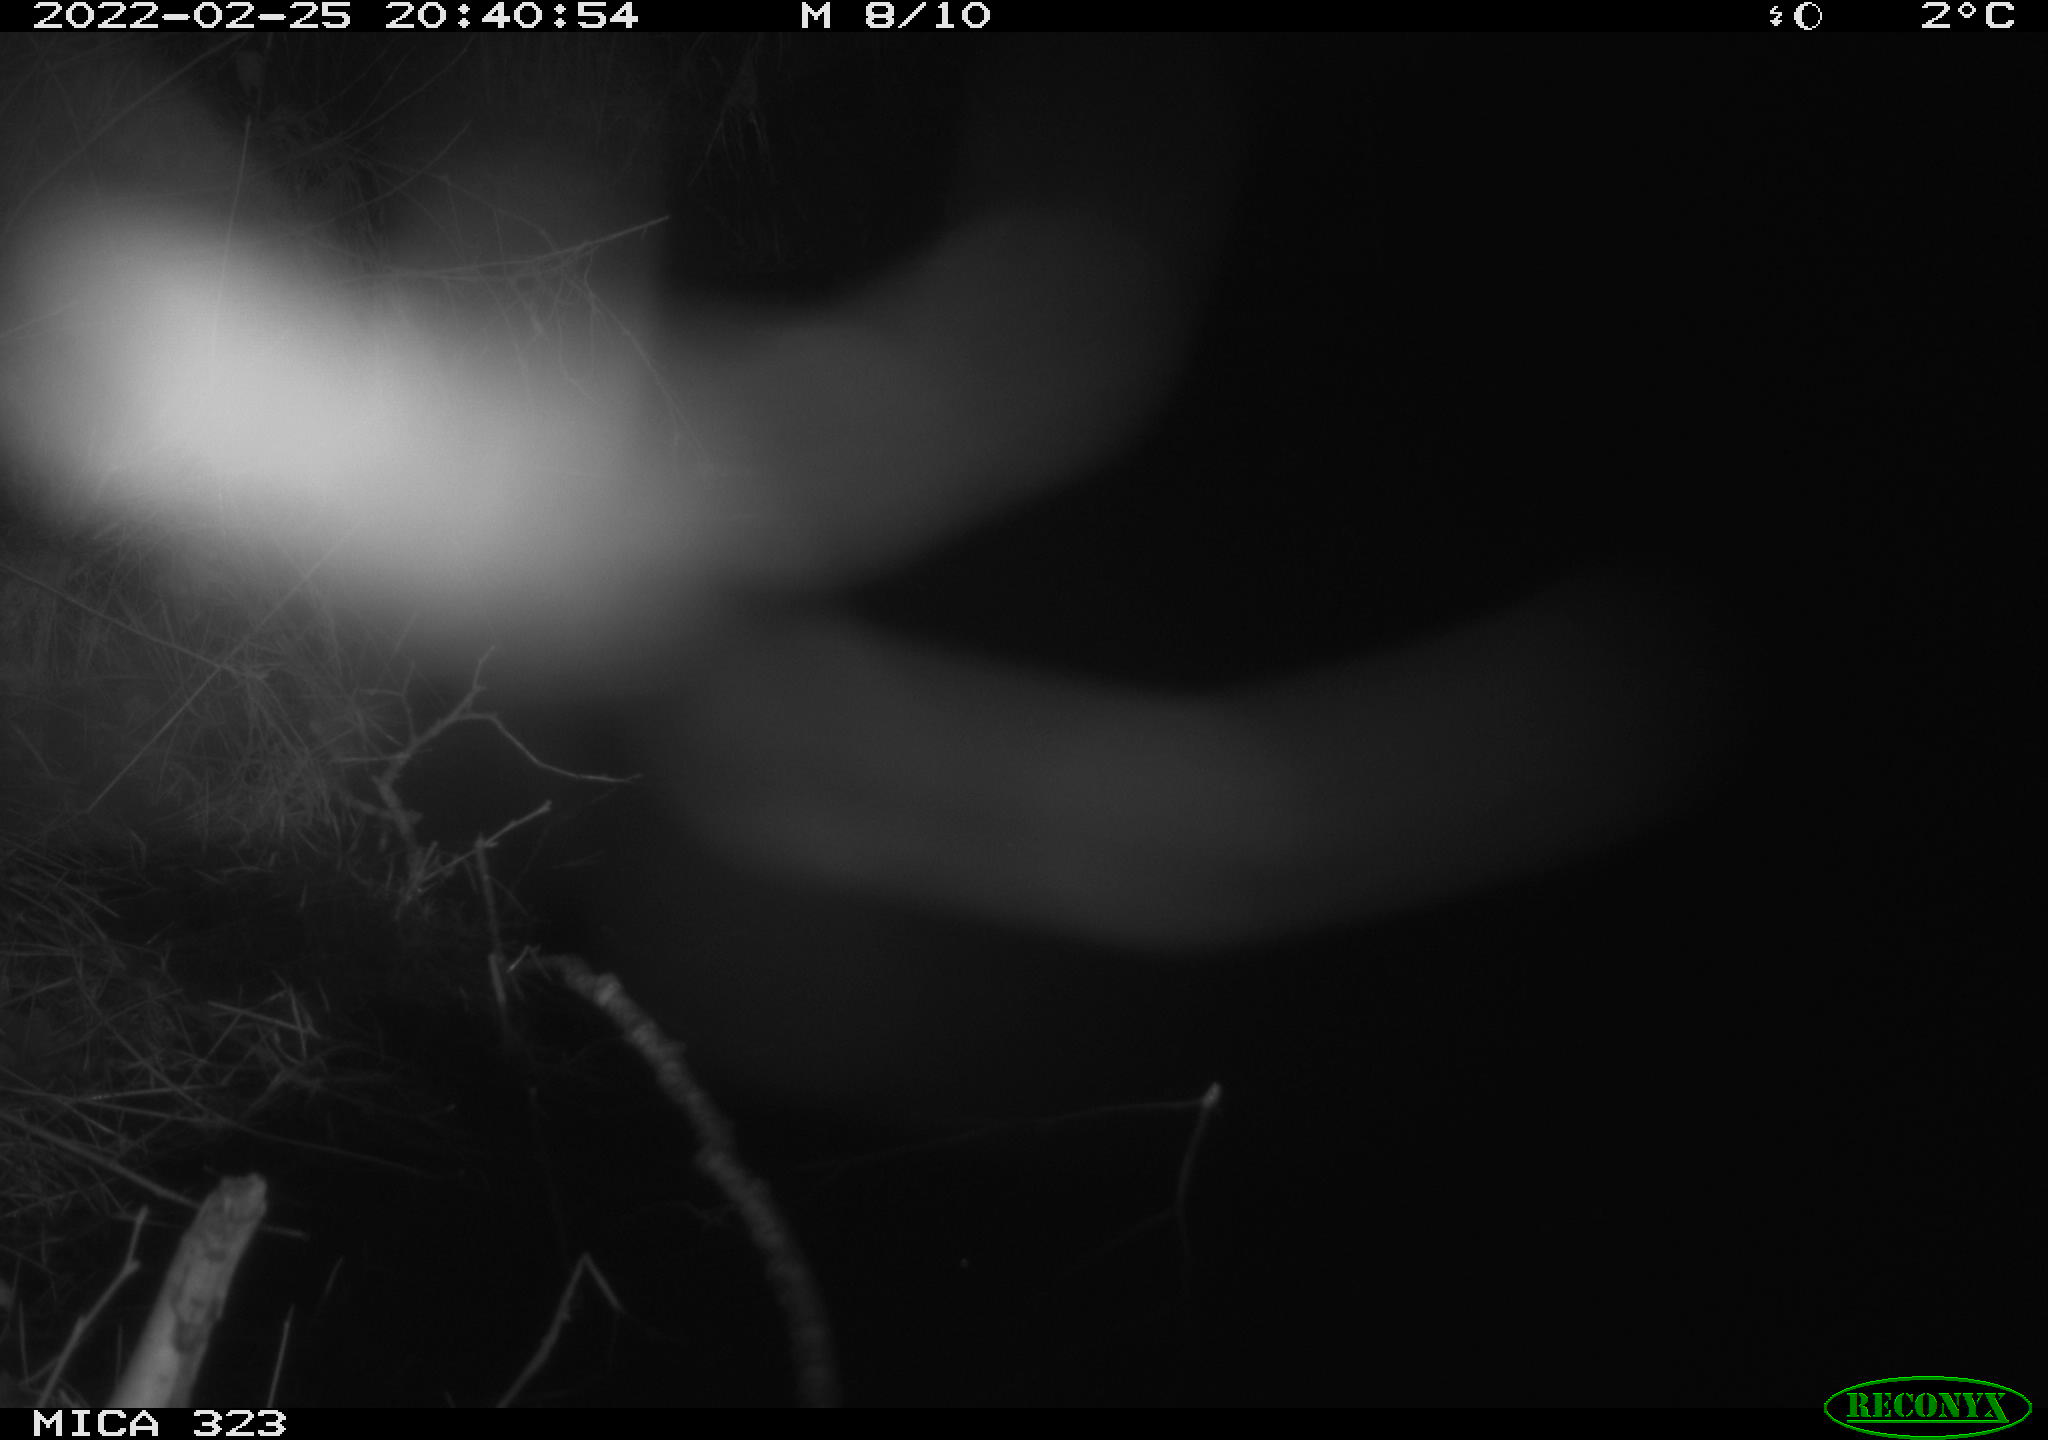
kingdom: Animalia
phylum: Chordata
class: Mammalia
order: Rodentia
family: Cricetidae
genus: Ondatra
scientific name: Ondatra zibethicus
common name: Muskrat
